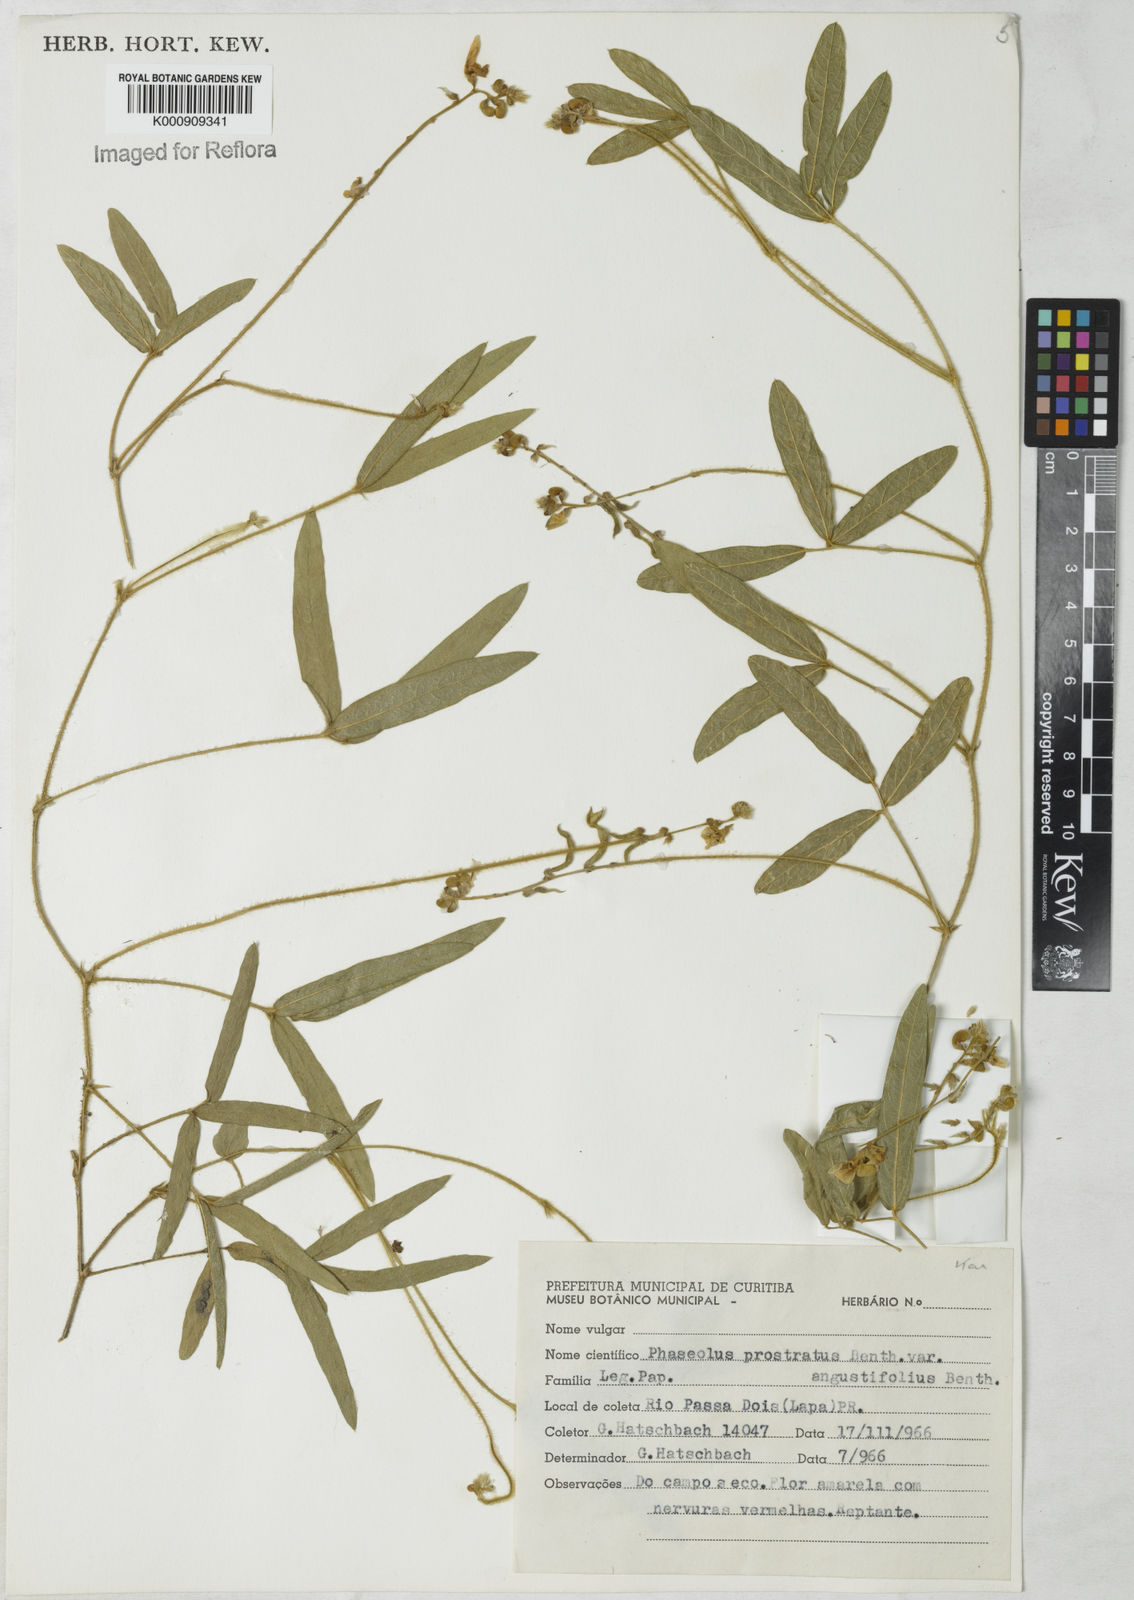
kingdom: Plantae
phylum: Tracheophyta
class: Magnoliopsida
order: Fabales
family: Fabaceae
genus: Macroptilium
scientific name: Macroptilium prostratum
